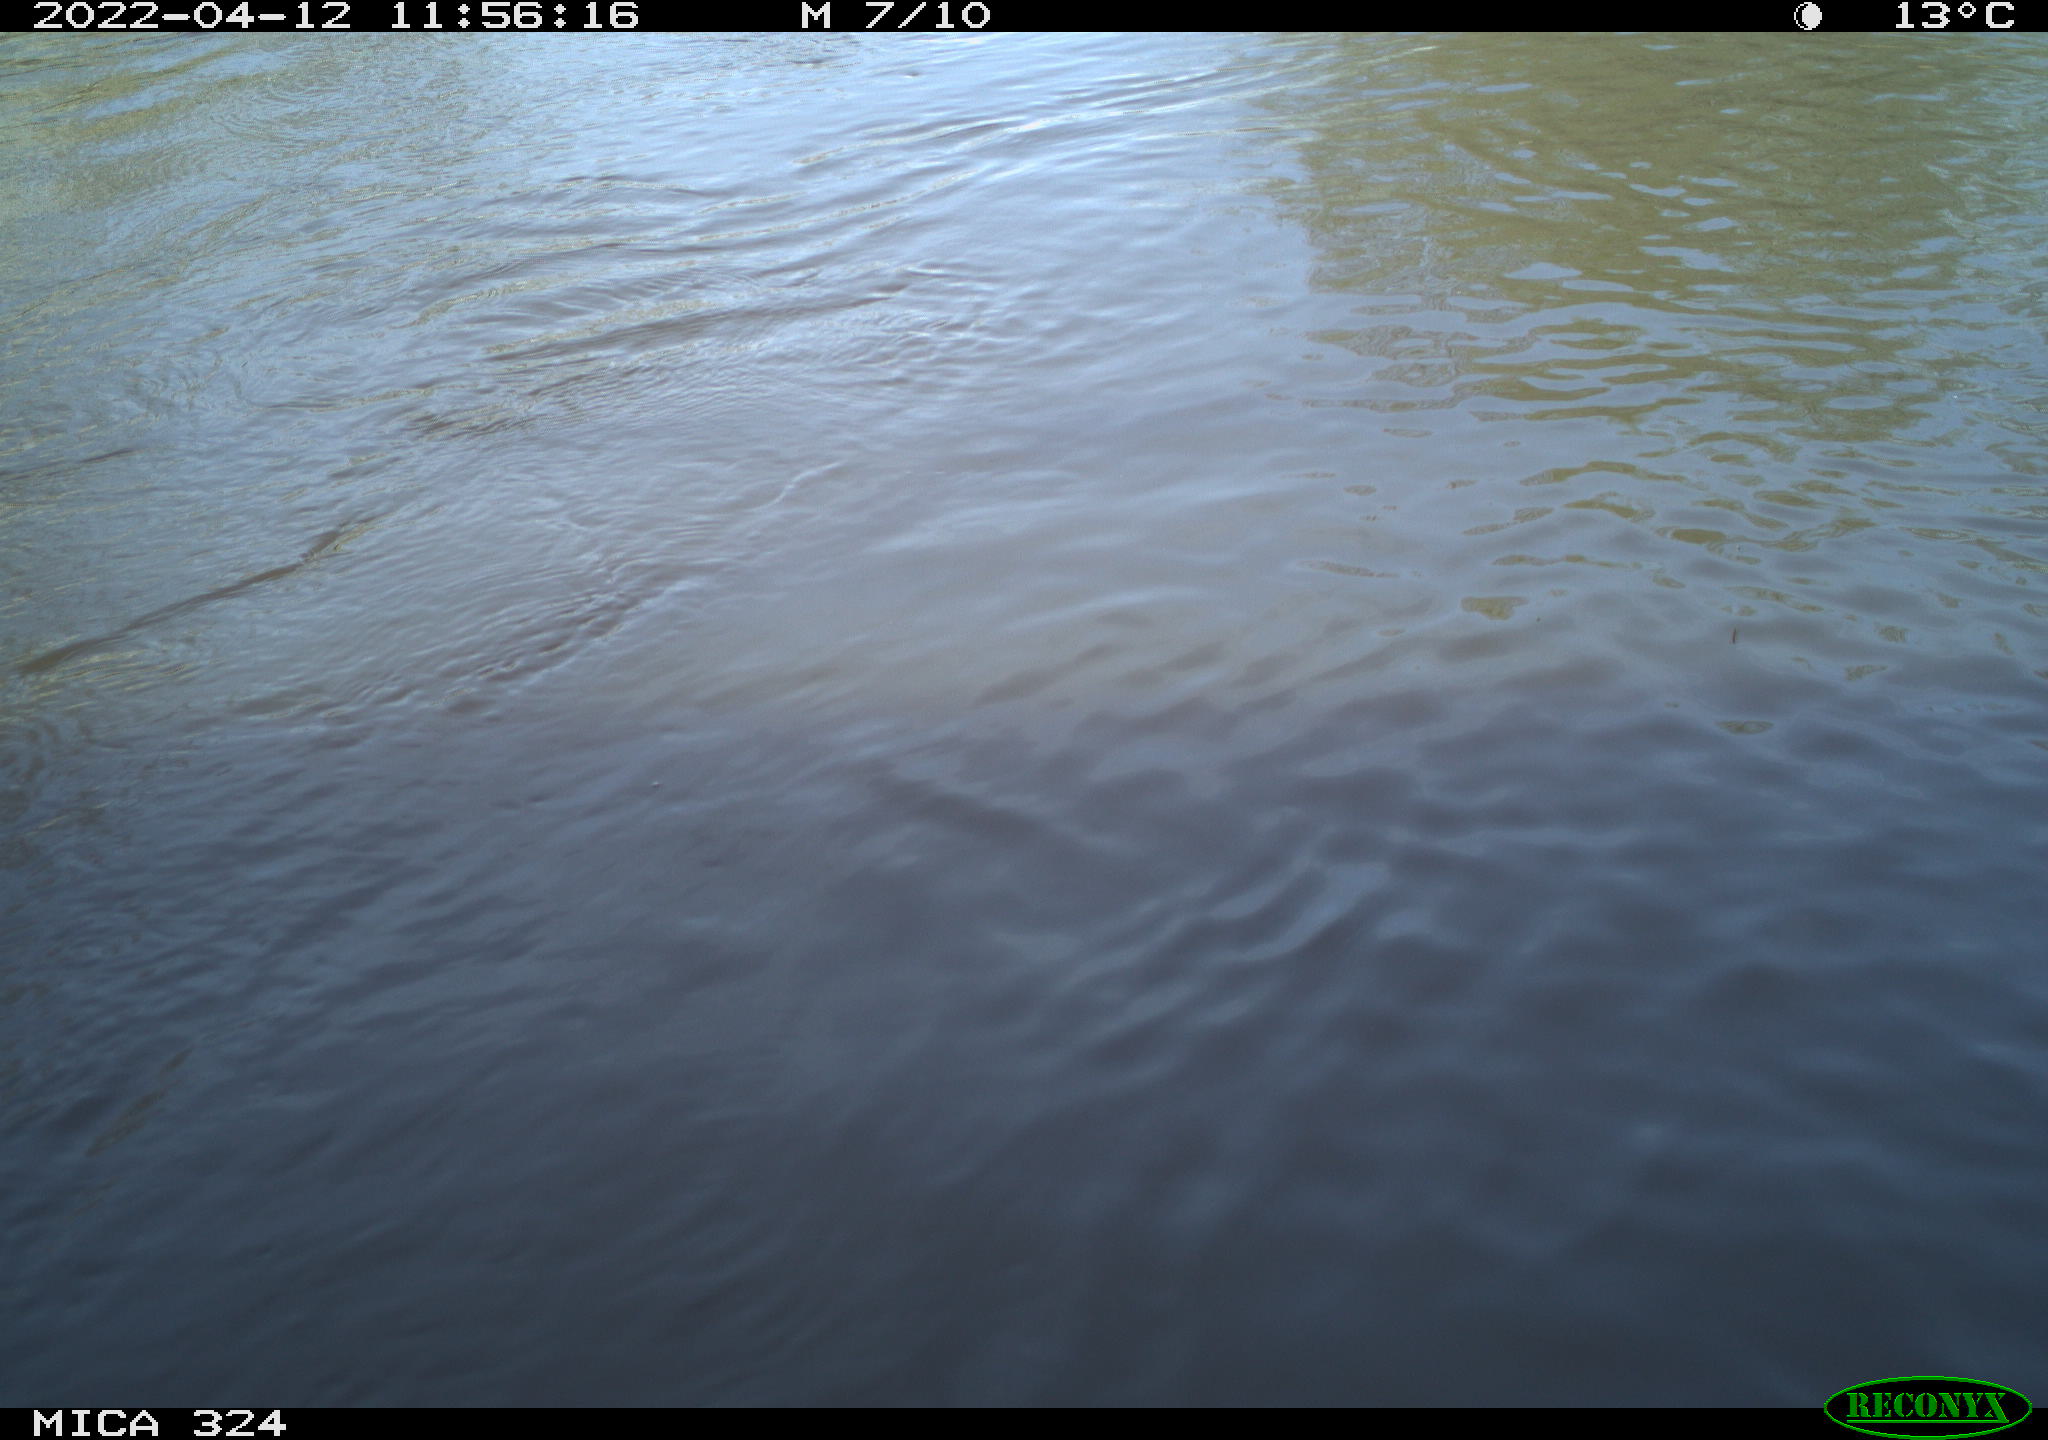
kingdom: Animalia
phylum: Chordata
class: Aves
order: Gruiformes
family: Rallidae
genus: Gallinula
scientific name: Gallinula chloropus
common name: Common moorhen
